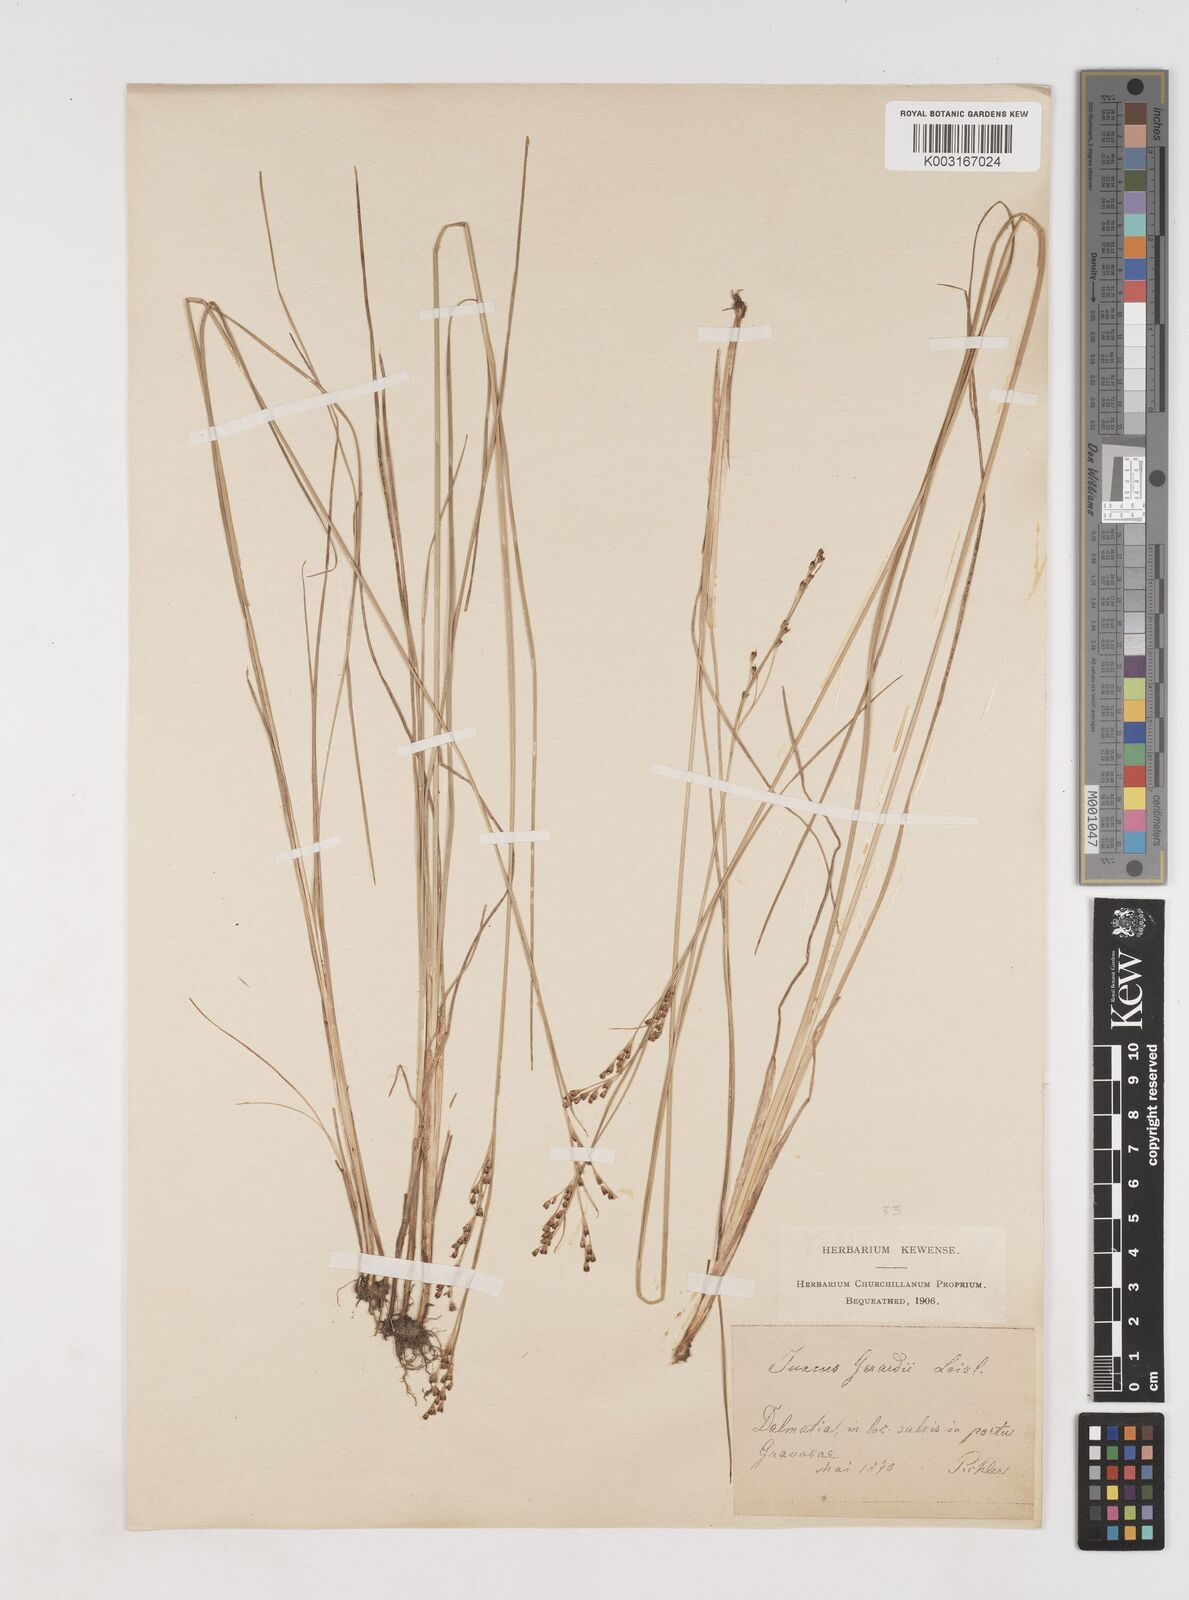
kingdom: Plantae
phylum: Tracheophyta
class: Liliopsida
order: Poales
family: Juncaceae
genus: Juncus
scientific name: Juncus gerardi
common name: Saltmarsh rush
